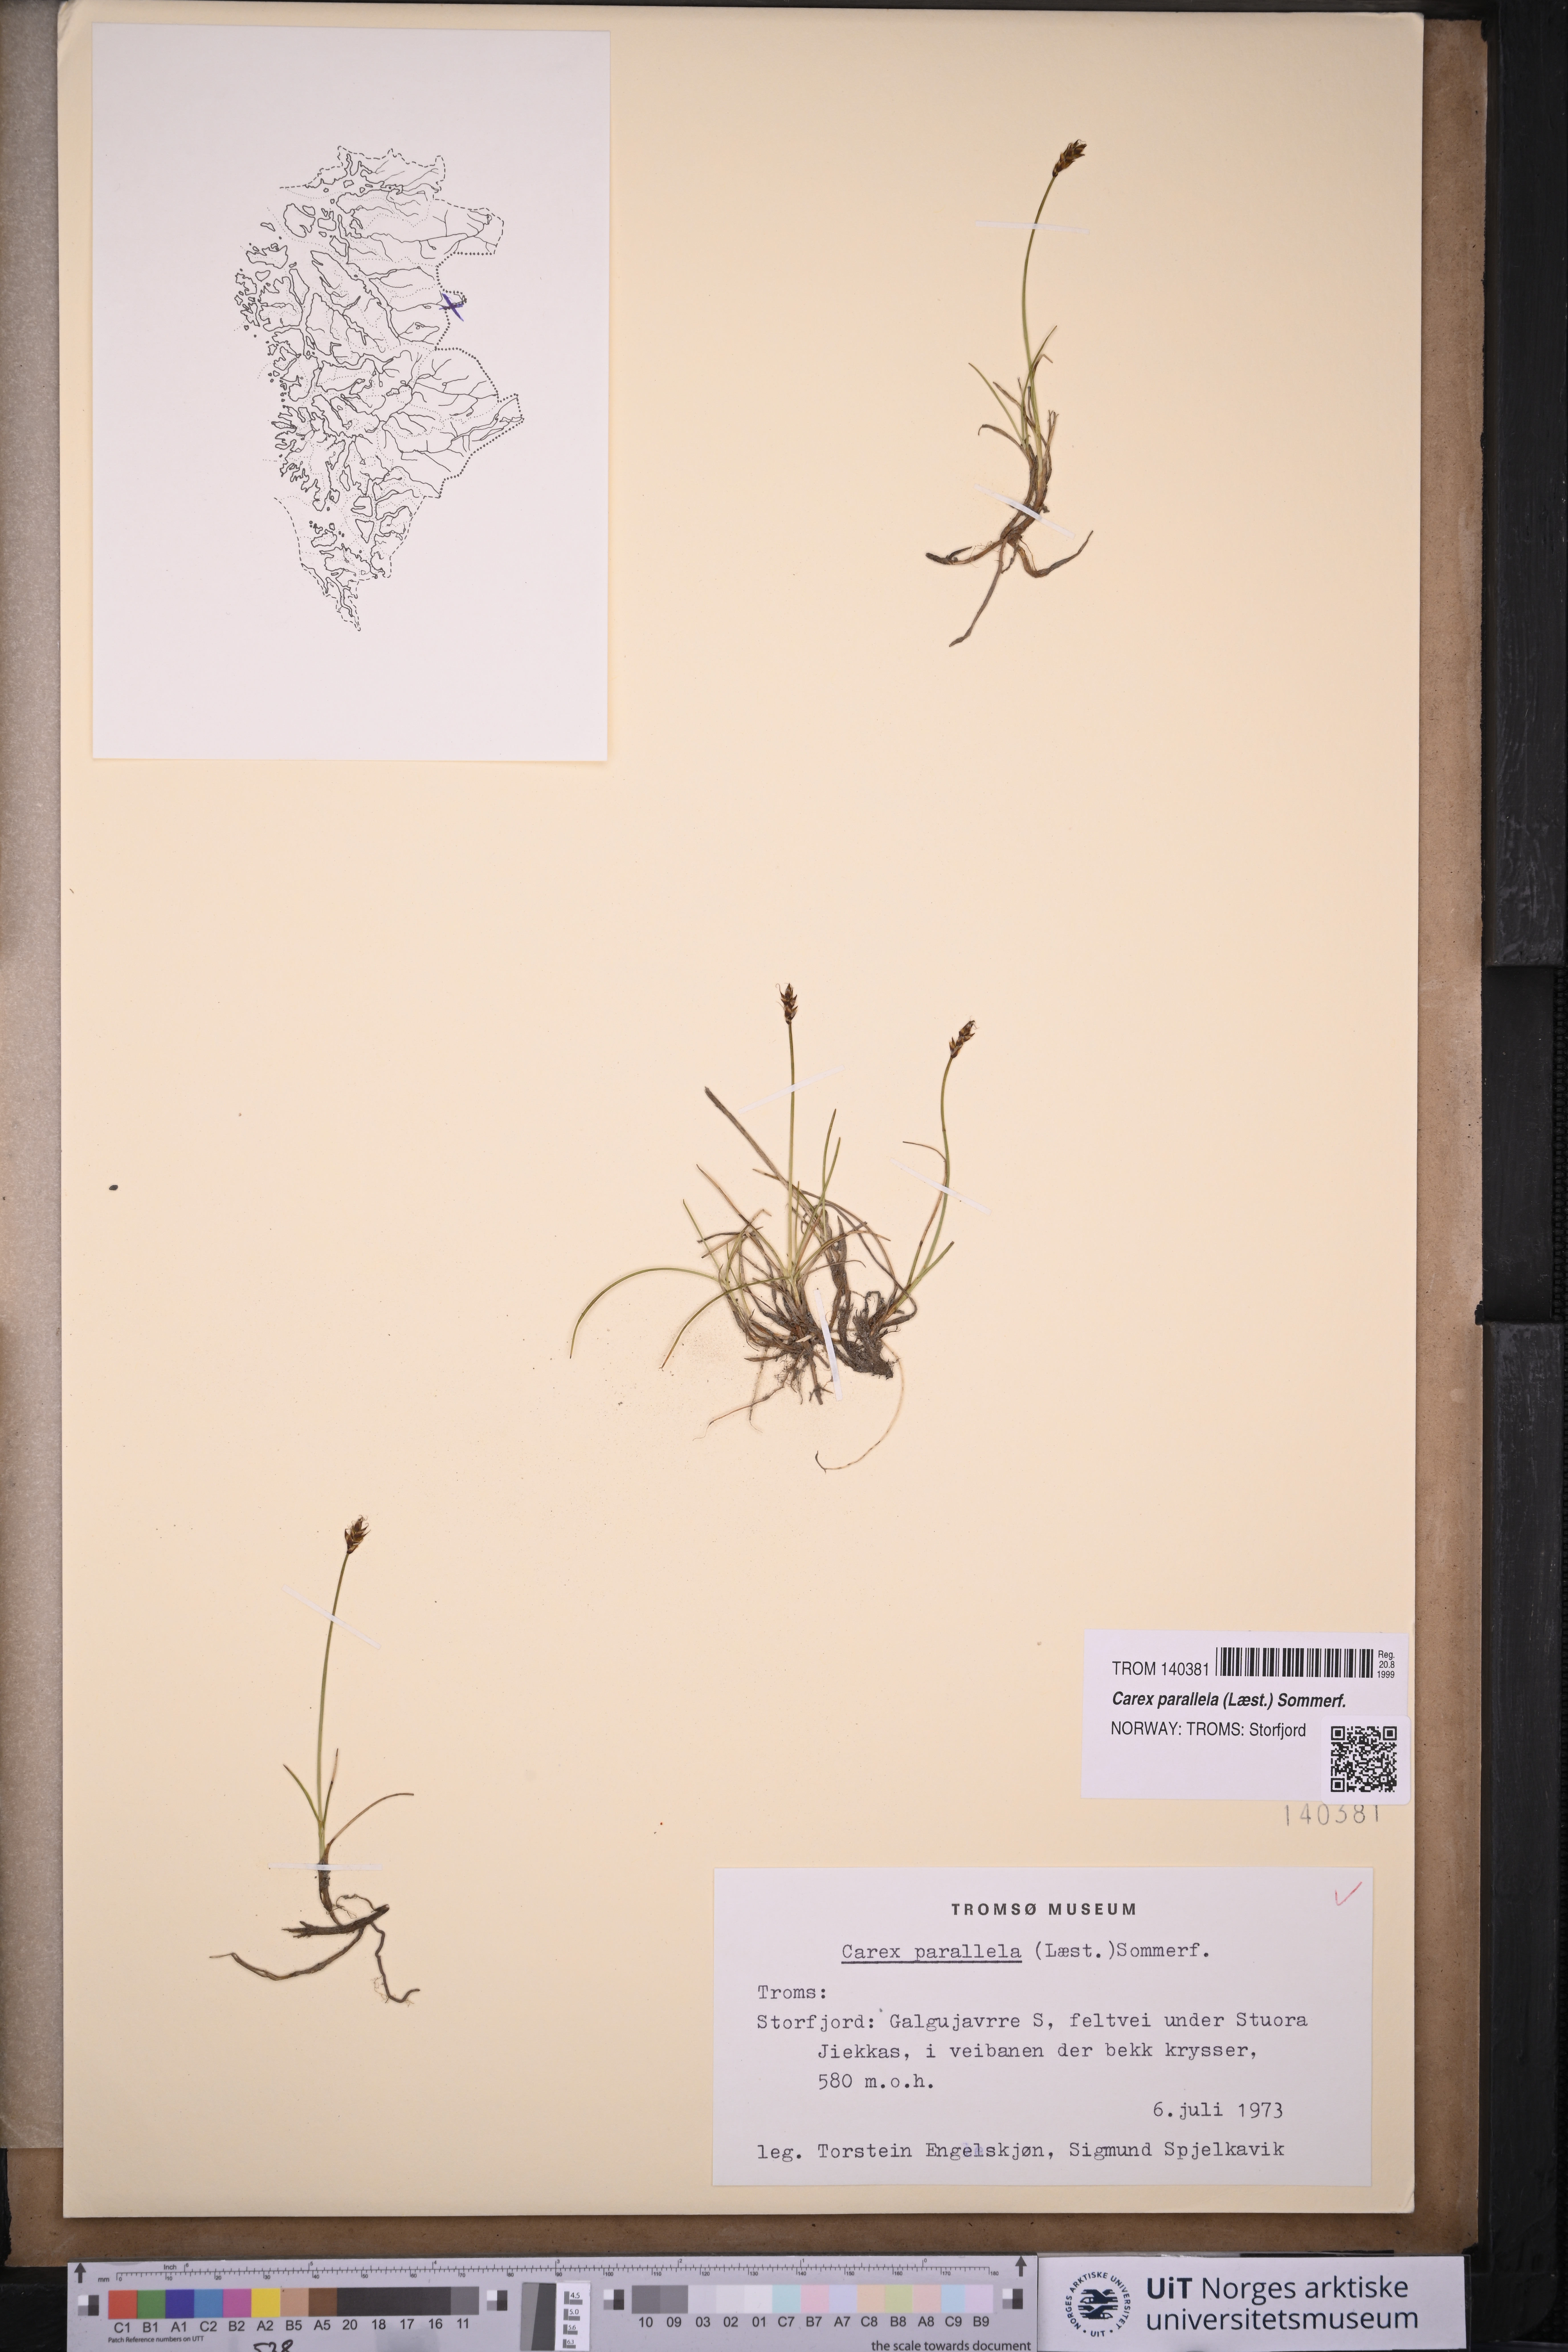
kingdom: Plantae
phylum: Tracheophyta
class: Liliopsida
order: Poales
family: Cyperaceae
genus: Carex
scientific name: Carex parallela
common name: Parallel sedge
